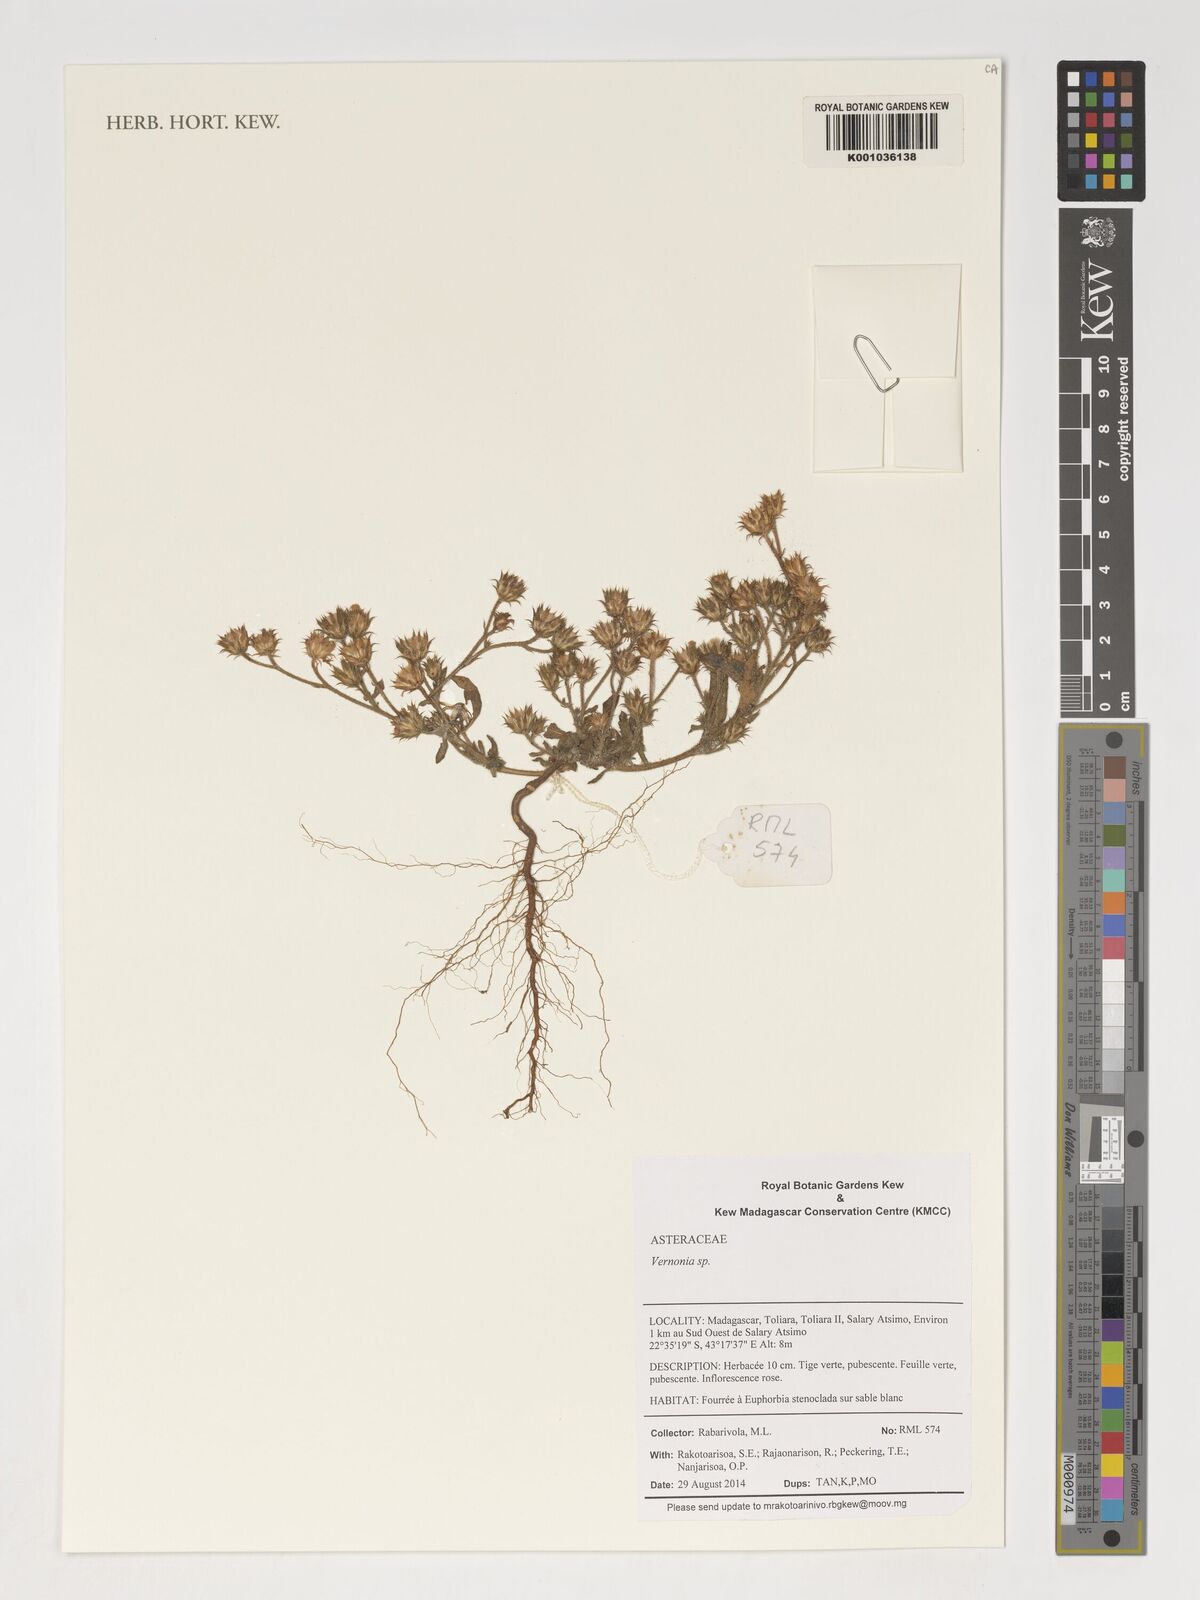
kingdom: Plantae
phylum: Tracheophyta
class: Magnoliopsida
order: Asterales
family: Asteraceae
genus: Vernonia
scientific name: Vernonia
